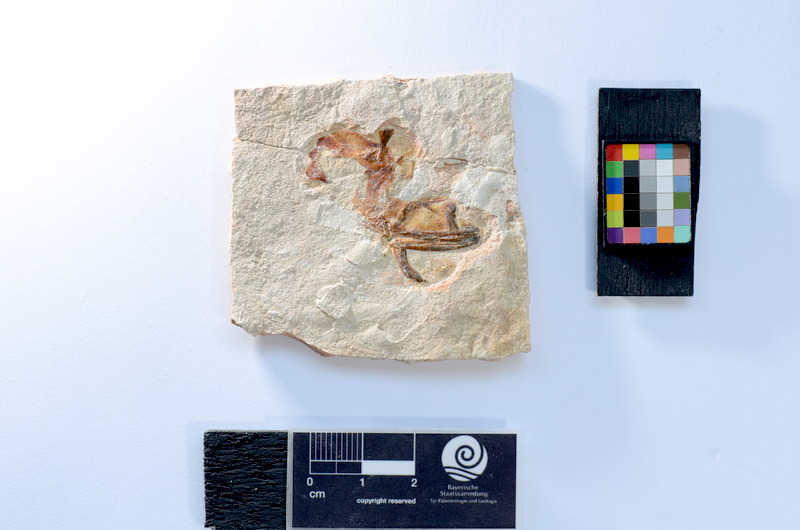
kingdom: Animalia
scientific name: Animalia
